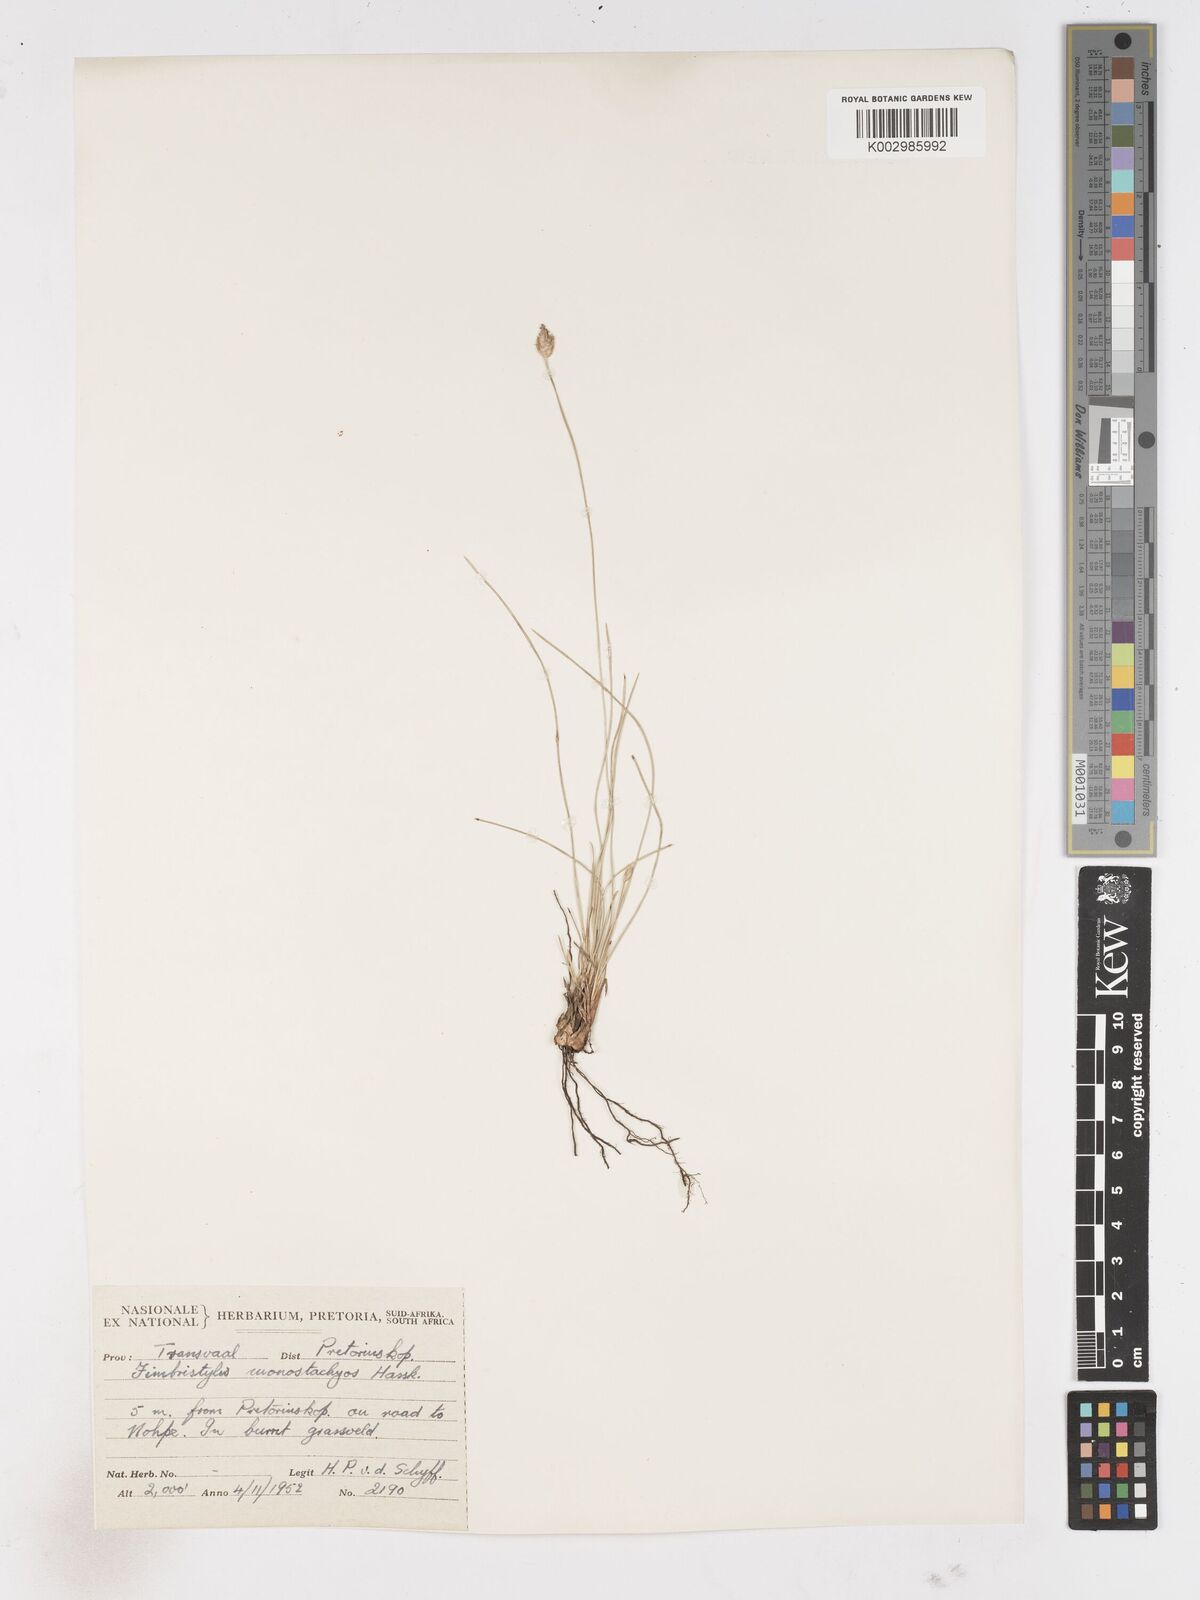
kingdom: Plantae
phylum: Tracheophyta
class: Liliopsida
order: Poales
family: Cyperaceae
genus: Abildgaardia
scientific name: Abildgaardia ovata
